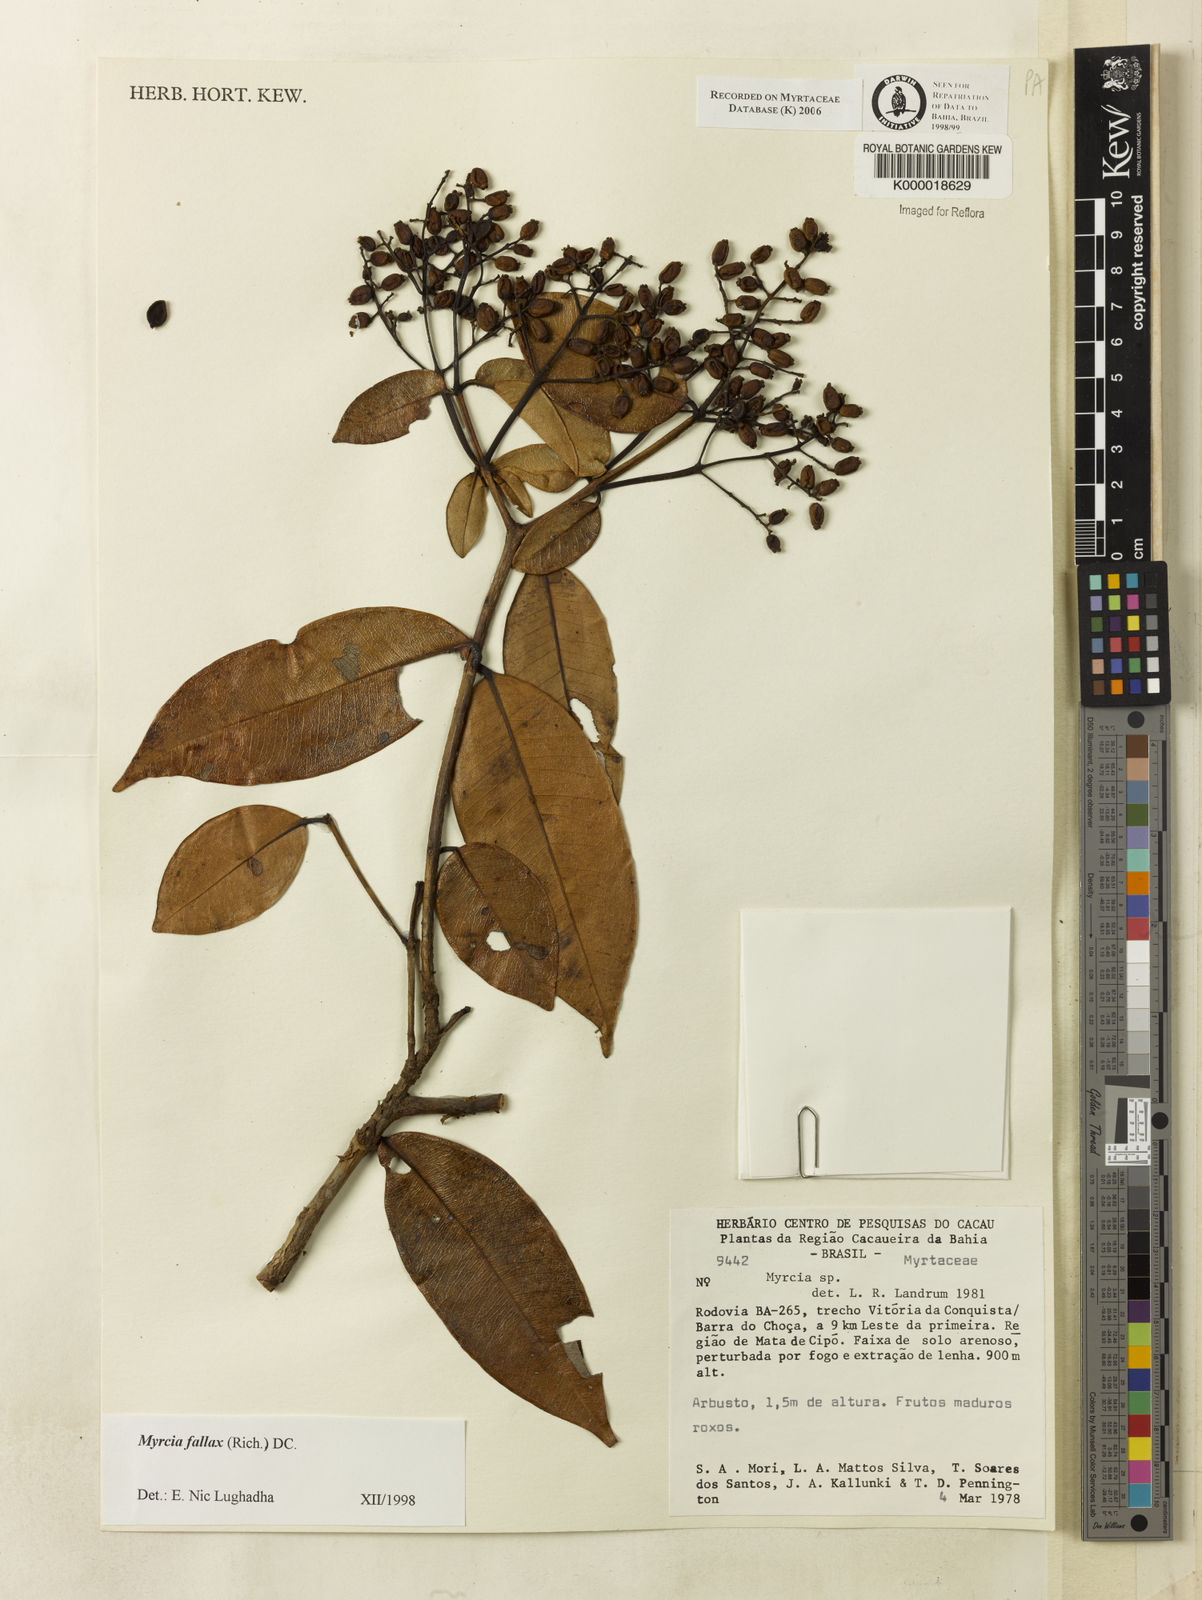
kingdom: Plantae
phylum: Tracheophyta
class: Magnoliopsida
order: Myrtales
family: Myrtaceae
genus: Myrcia
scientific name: Myrcia splendens
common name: Surinam cherry
